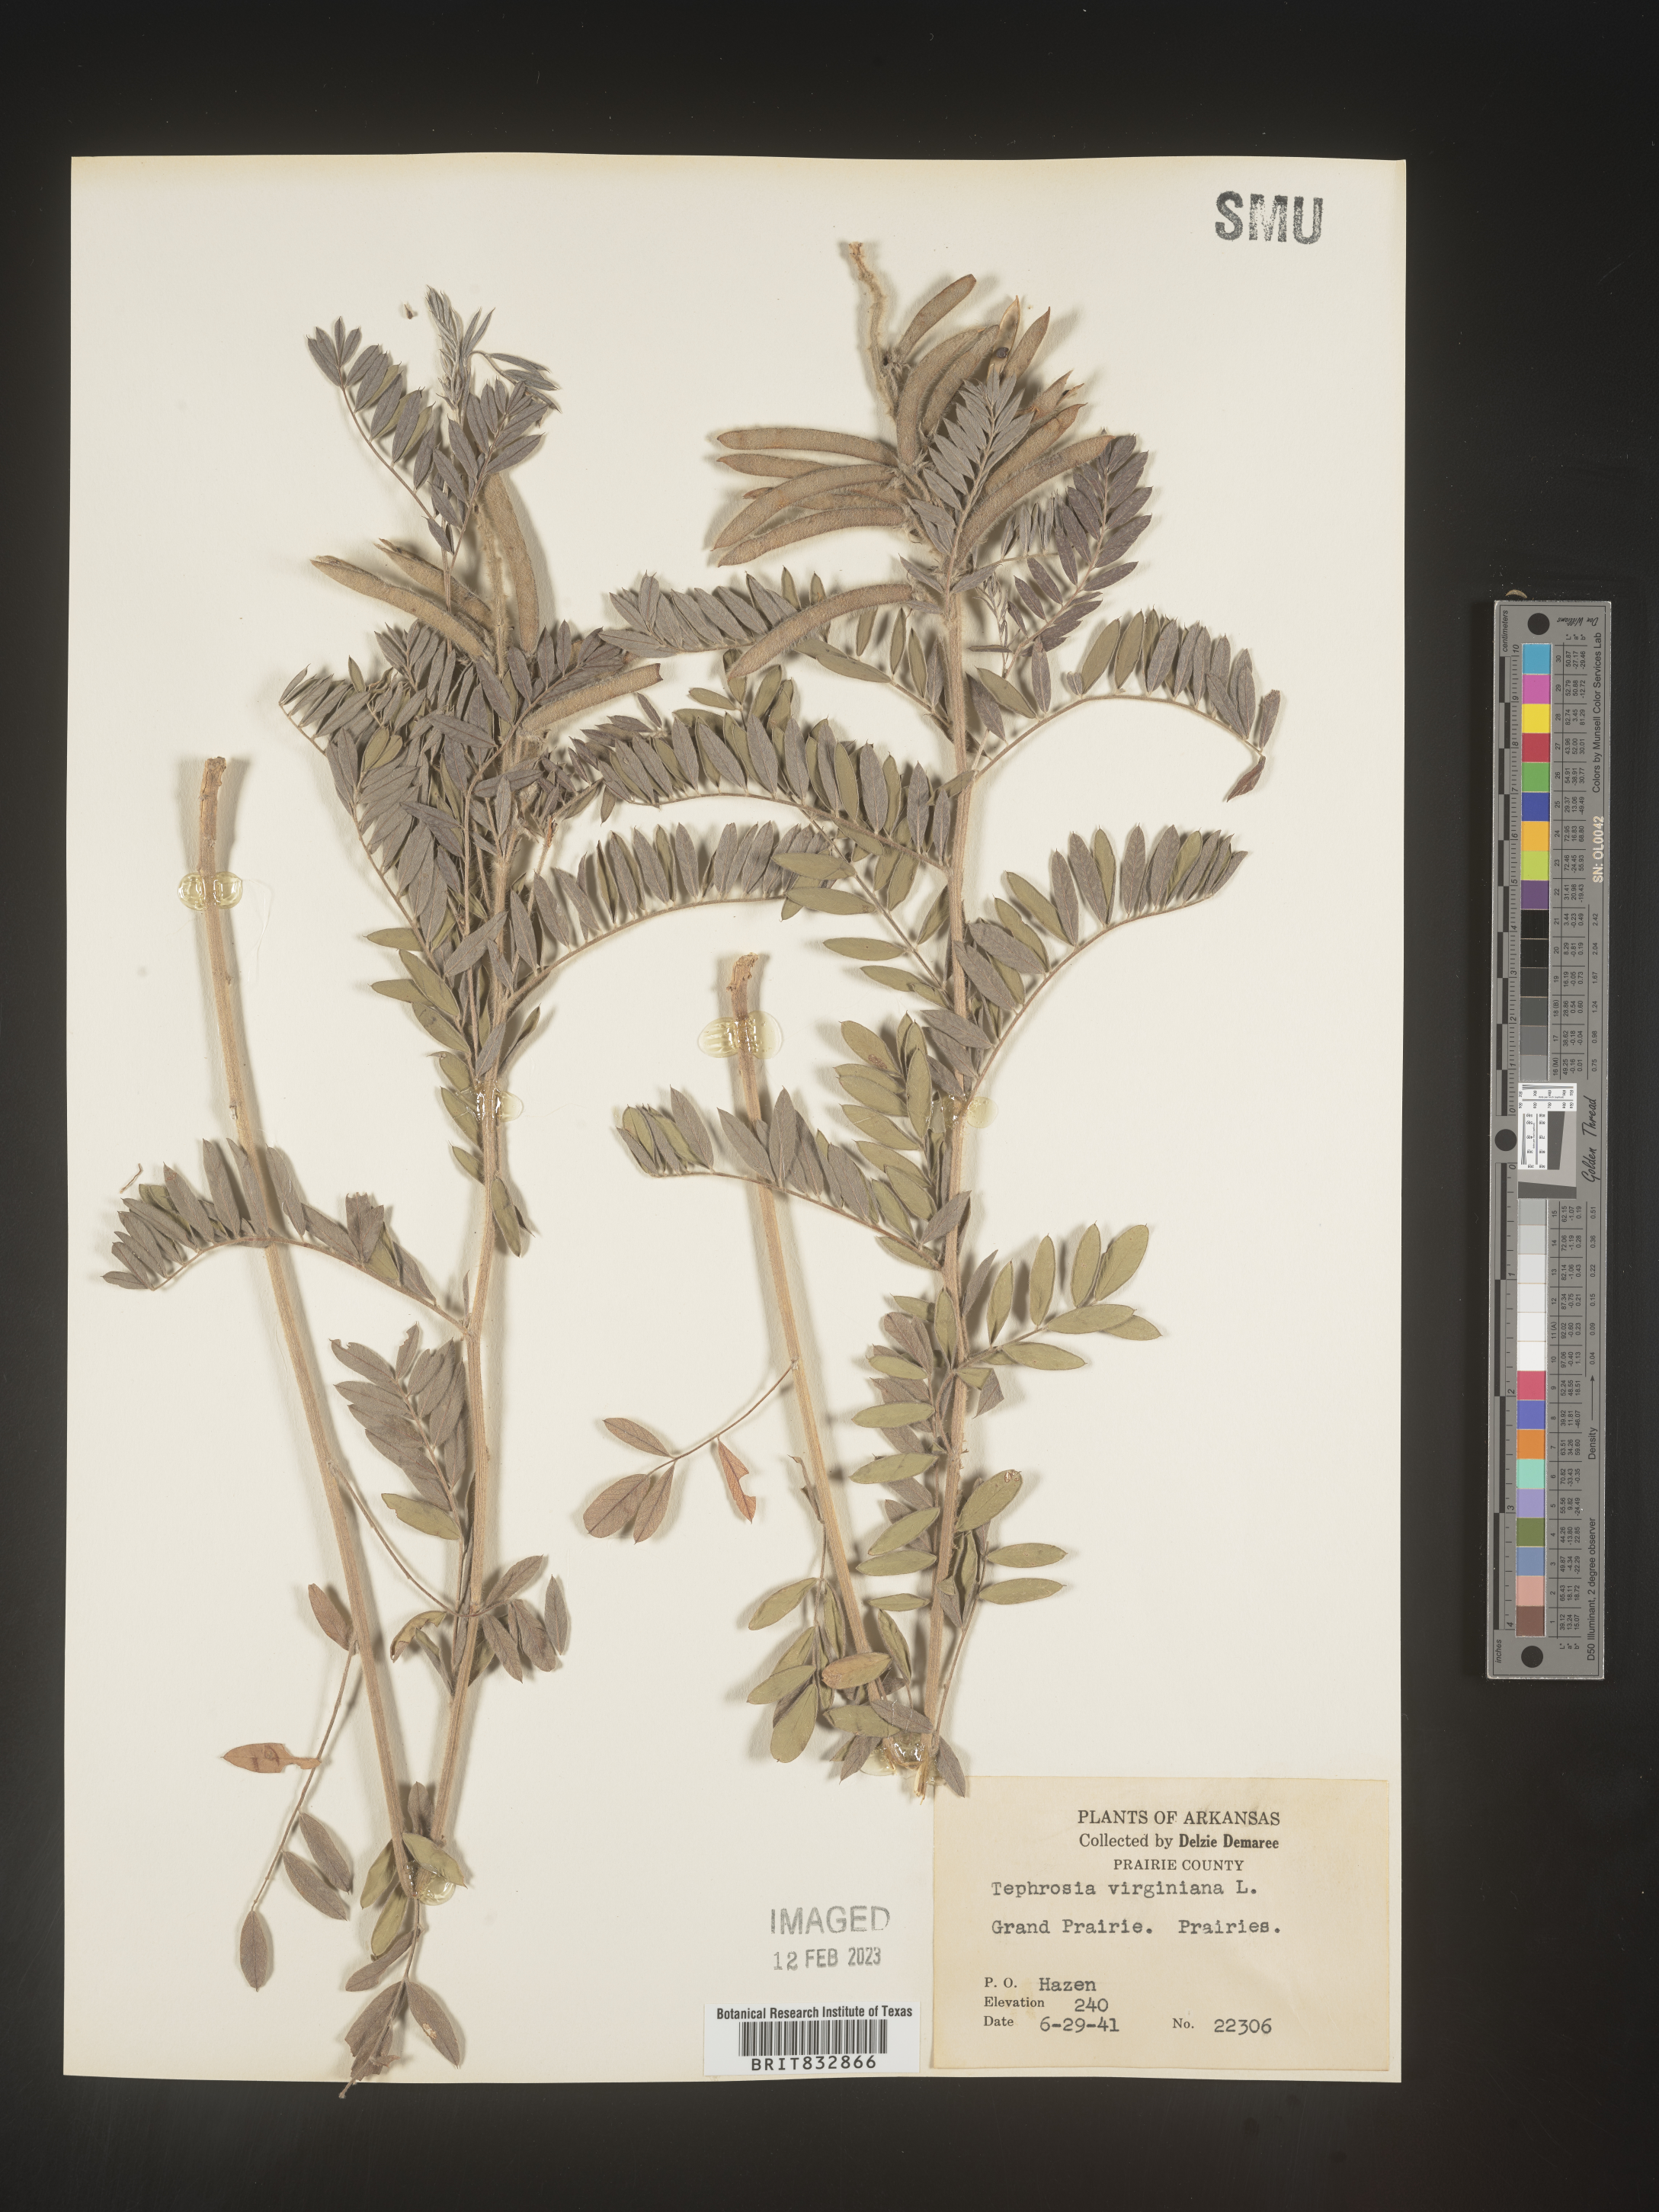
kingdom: Plantae
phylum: Tracheophyta
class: Magnoliopsida
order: Fabales
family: Fabaceae
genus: Tephrosia
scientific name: Tephrosia virginiana
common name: Rabbit-pea
